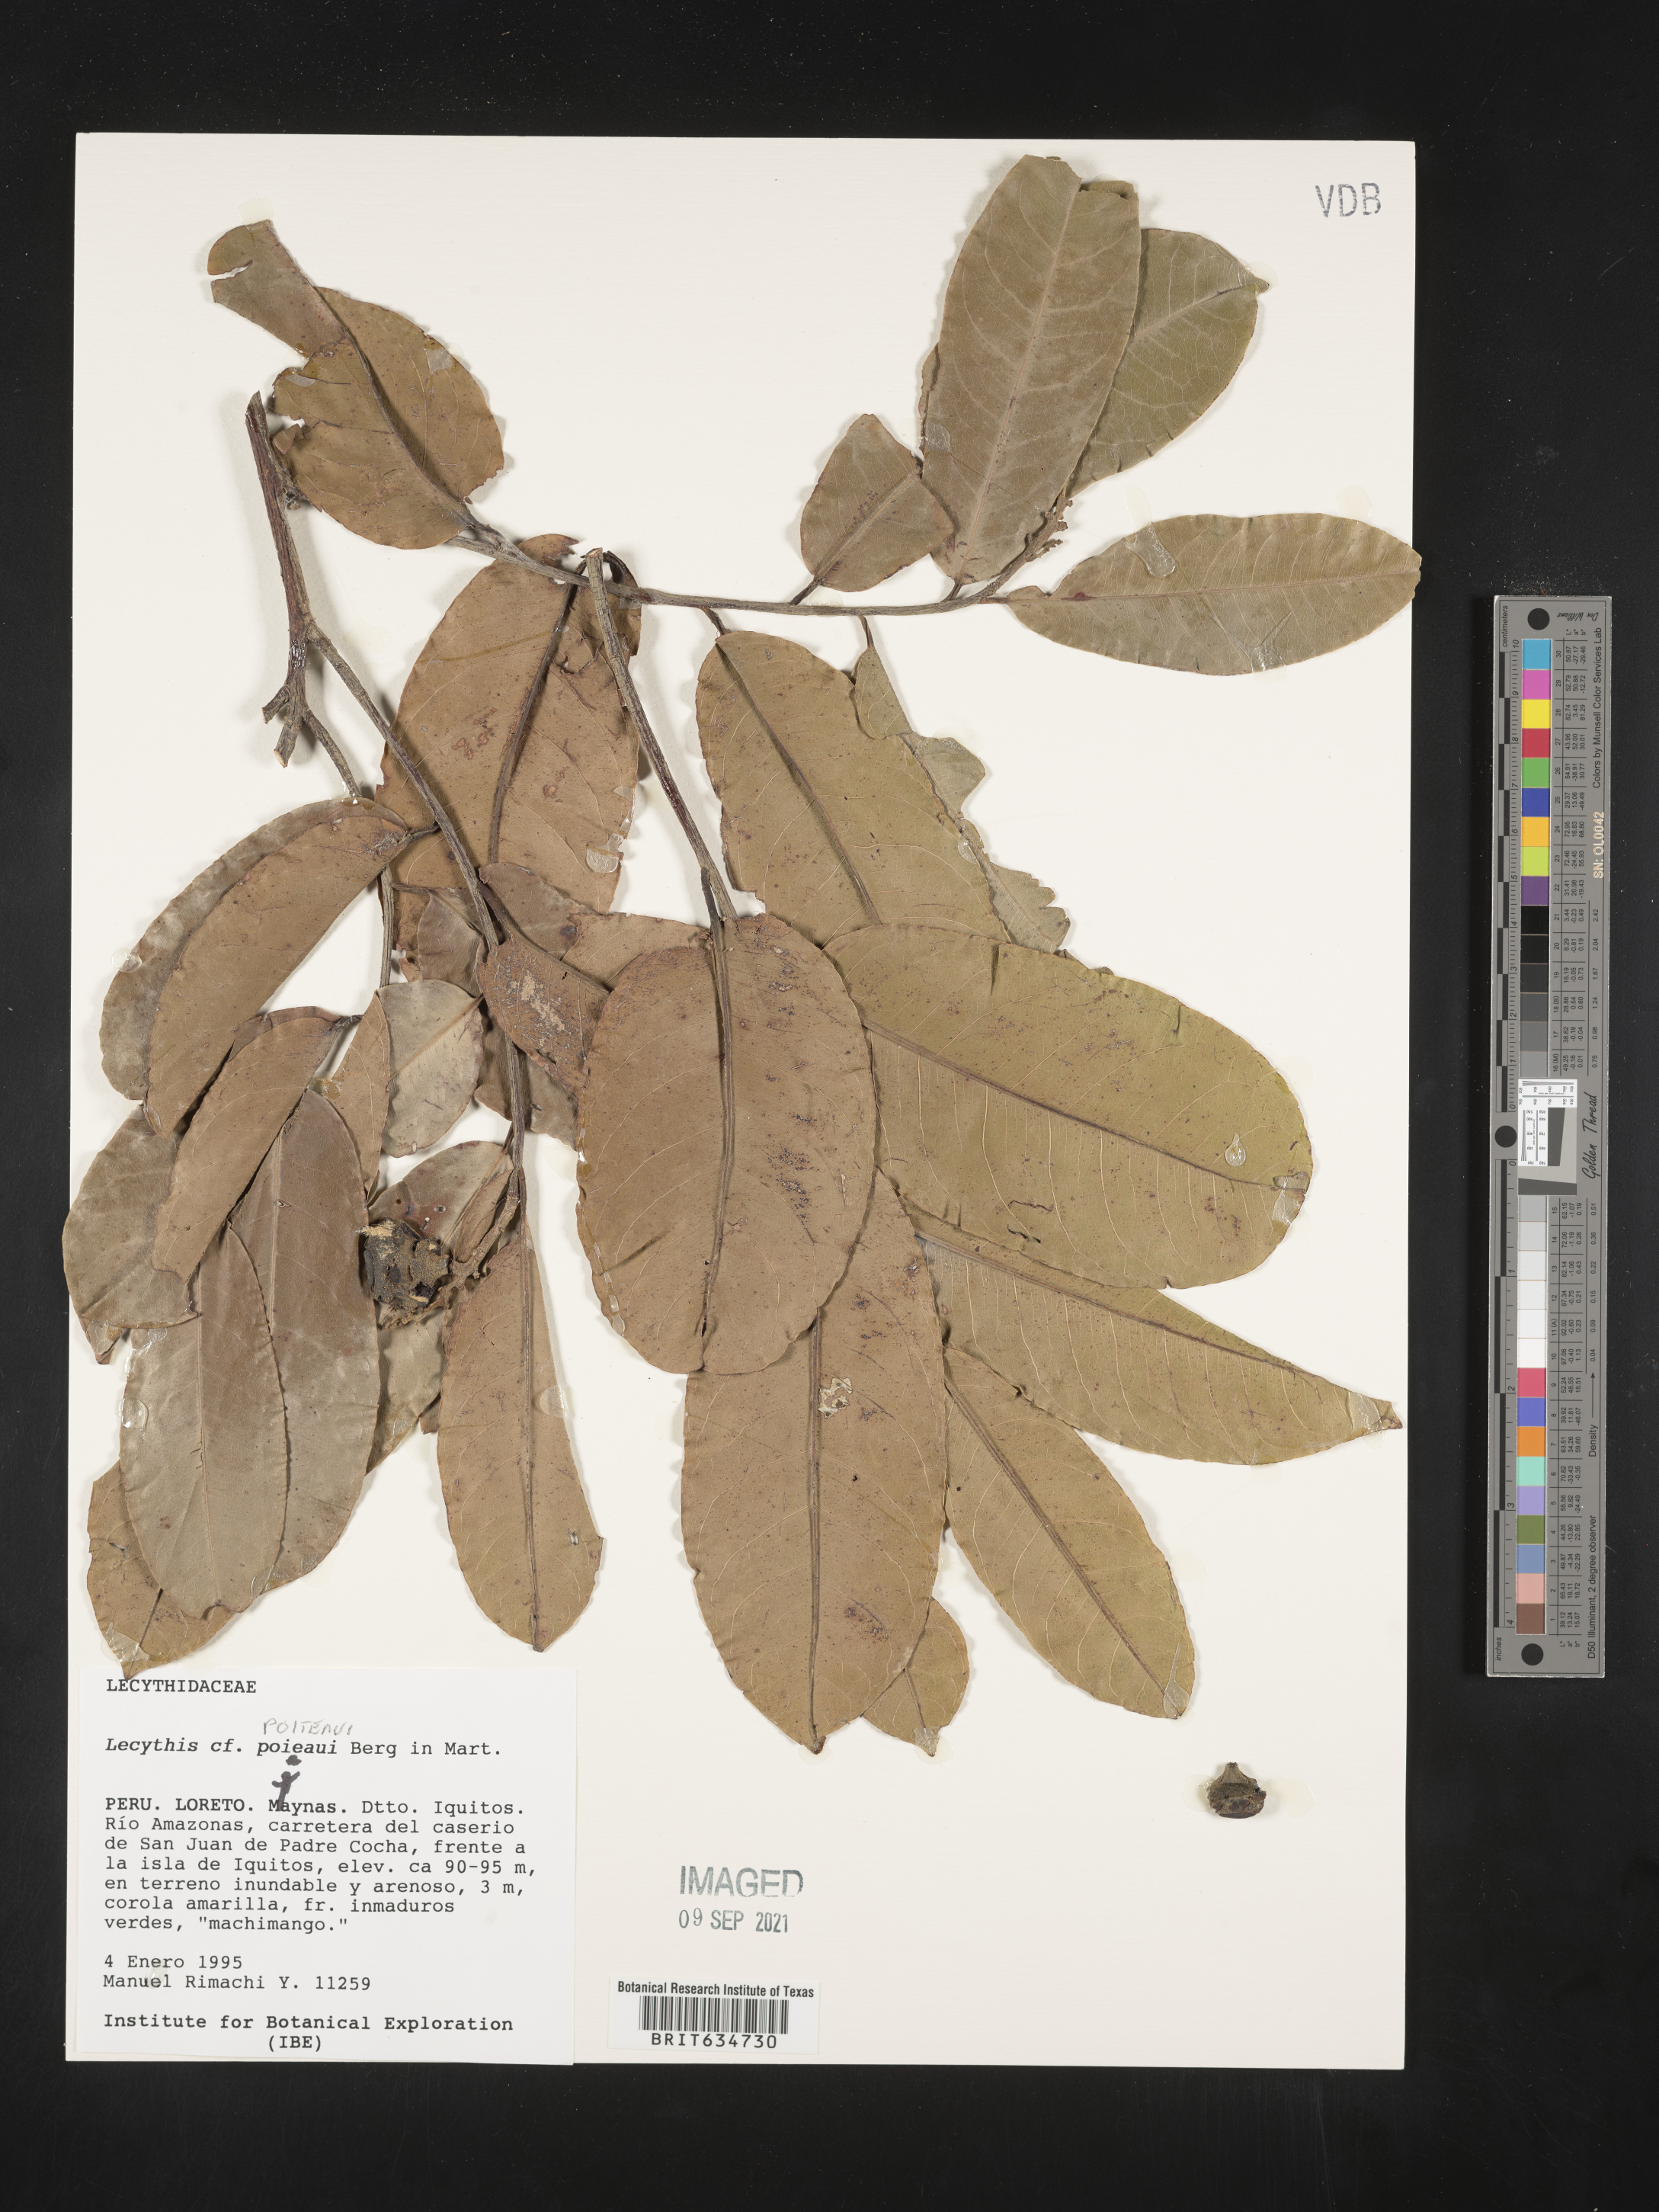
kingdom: Plantae
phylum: Tracheophyta
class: Magnoliopsida
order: Ericales
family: Lecythidaceae
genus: Lecythis
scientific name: Lecythis
